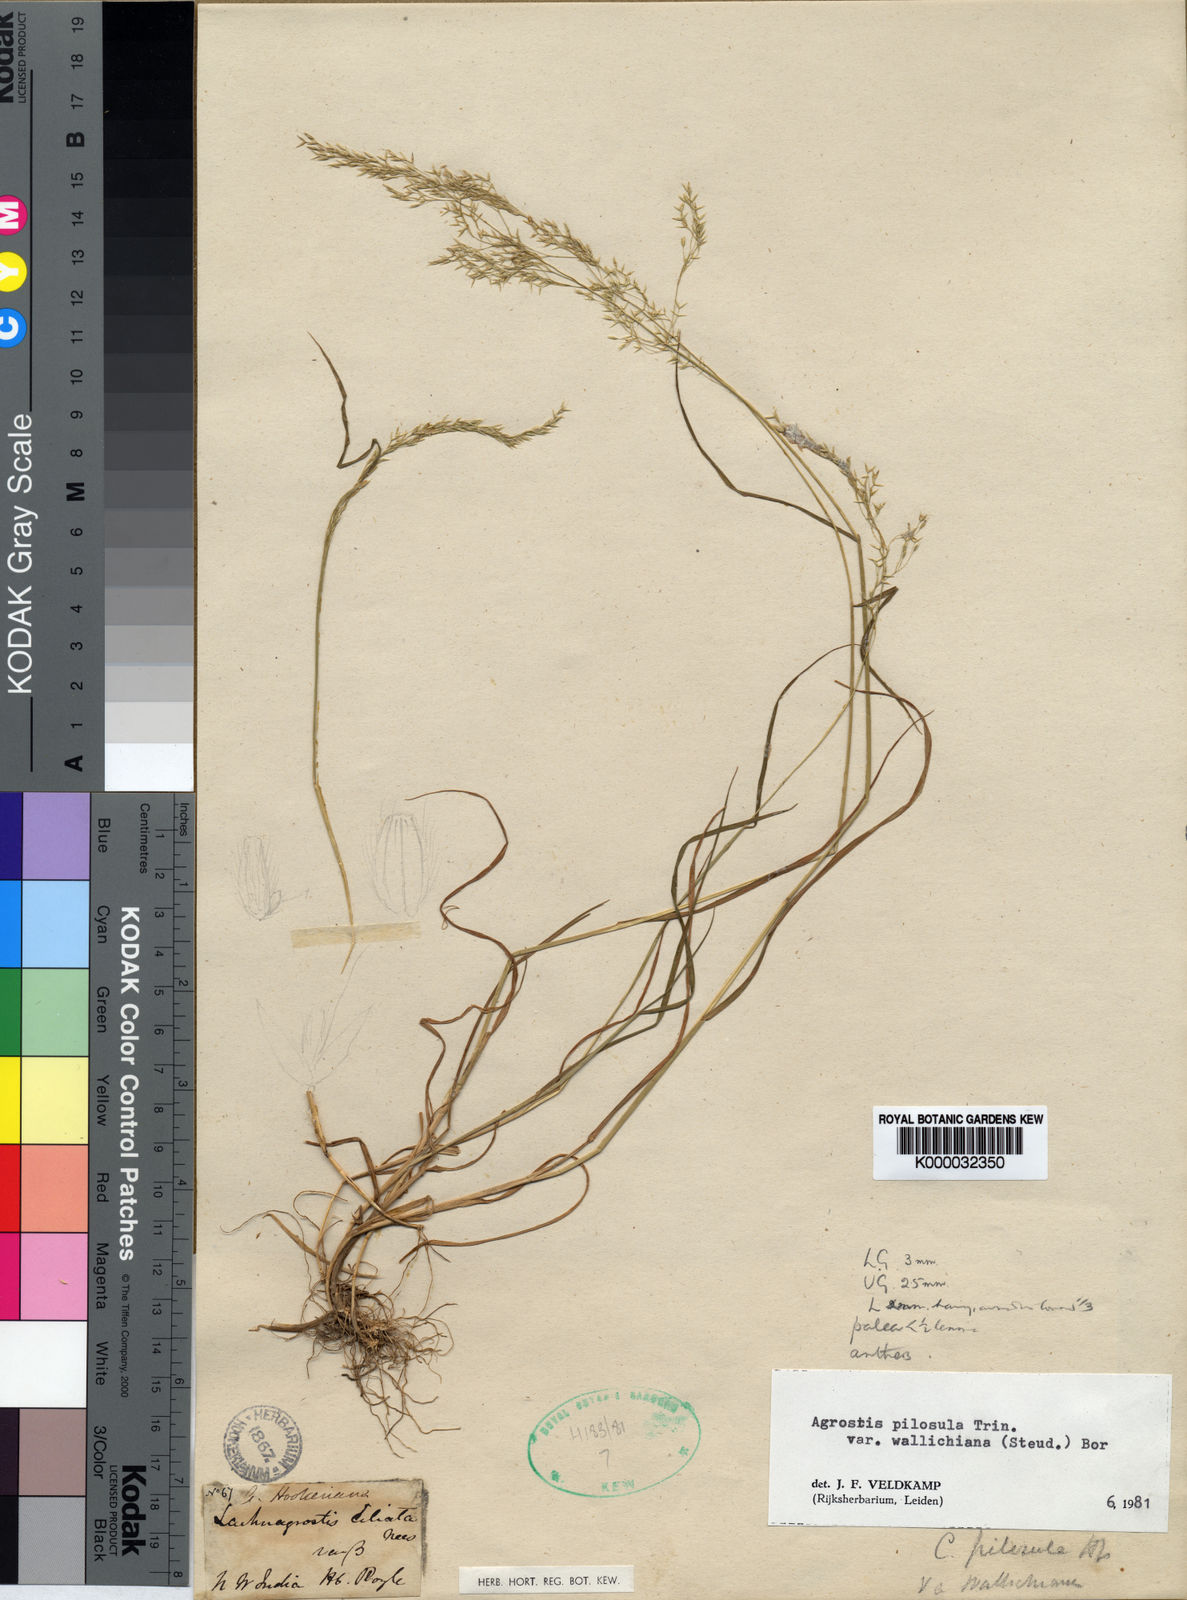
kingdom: Plantae
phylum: Tracheophyta
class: Liliopsida
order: Poales
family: Poaceae
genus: Agrostis
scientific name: Agrostis pilosula
